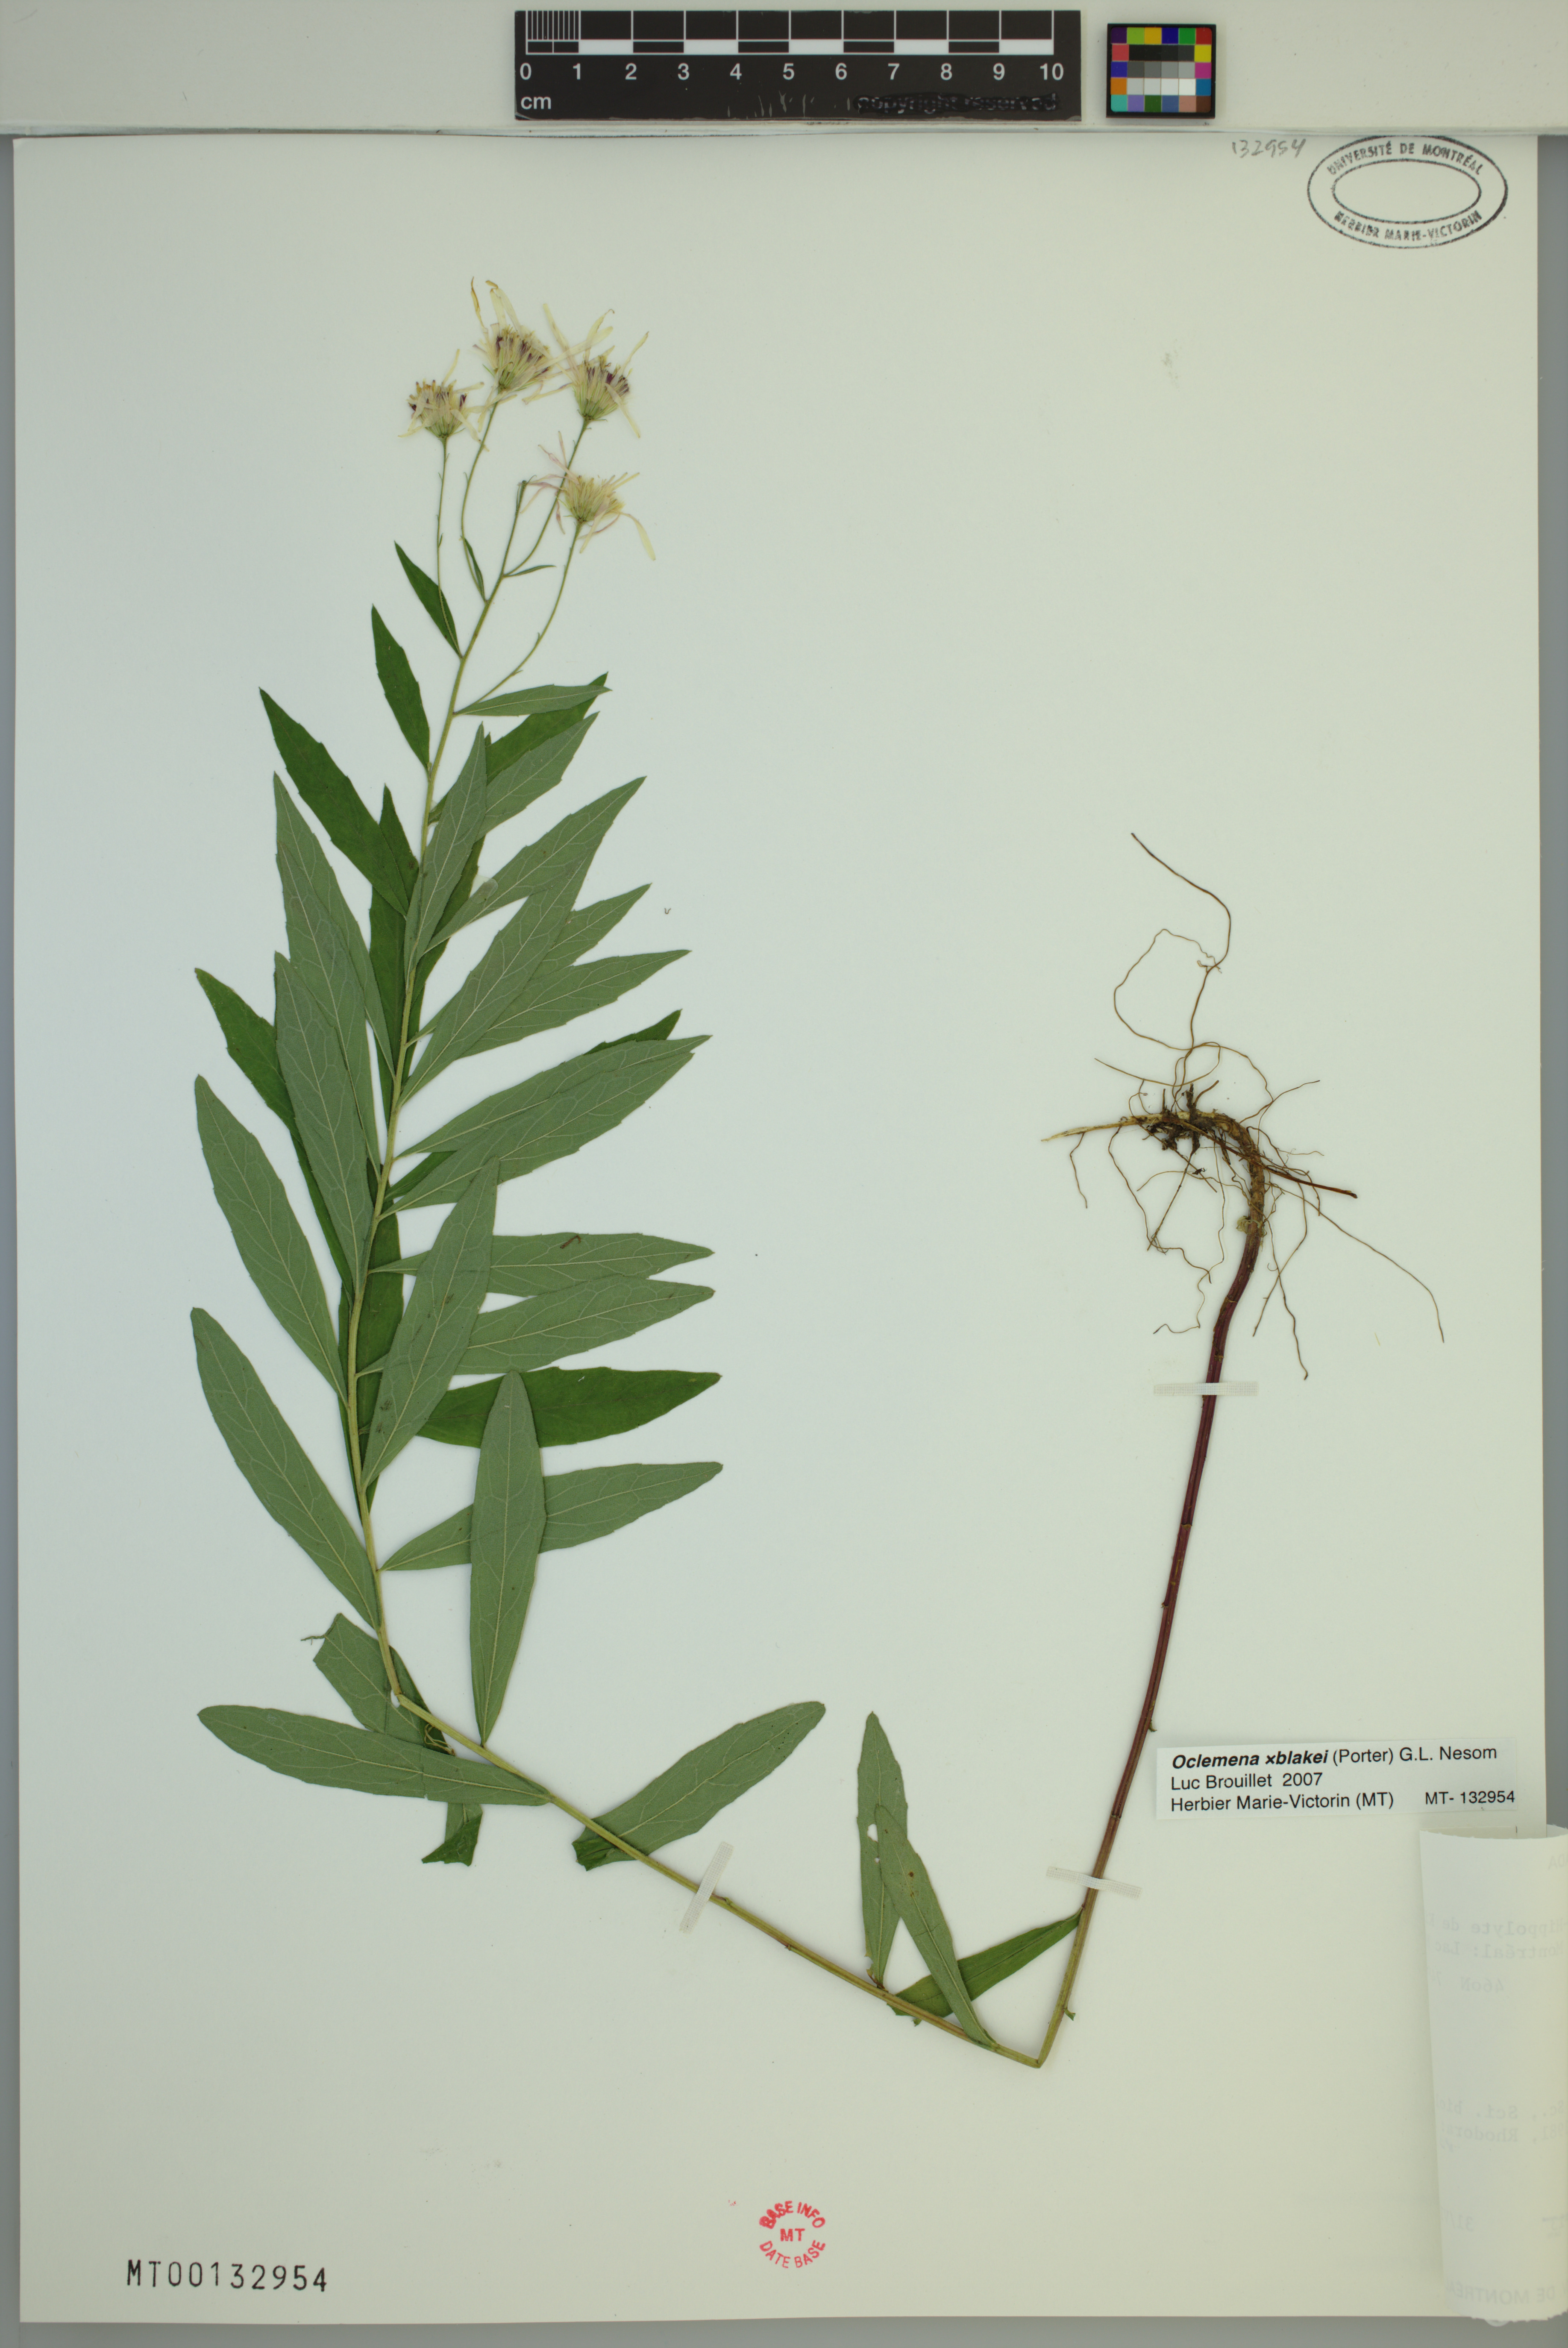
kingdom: Plantae
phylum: Tracheophyta
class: Magnoliopsida
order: Asterales
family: Asteraceae
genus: Oclemena
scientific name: Oclemena blakei
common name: Blake's aster
